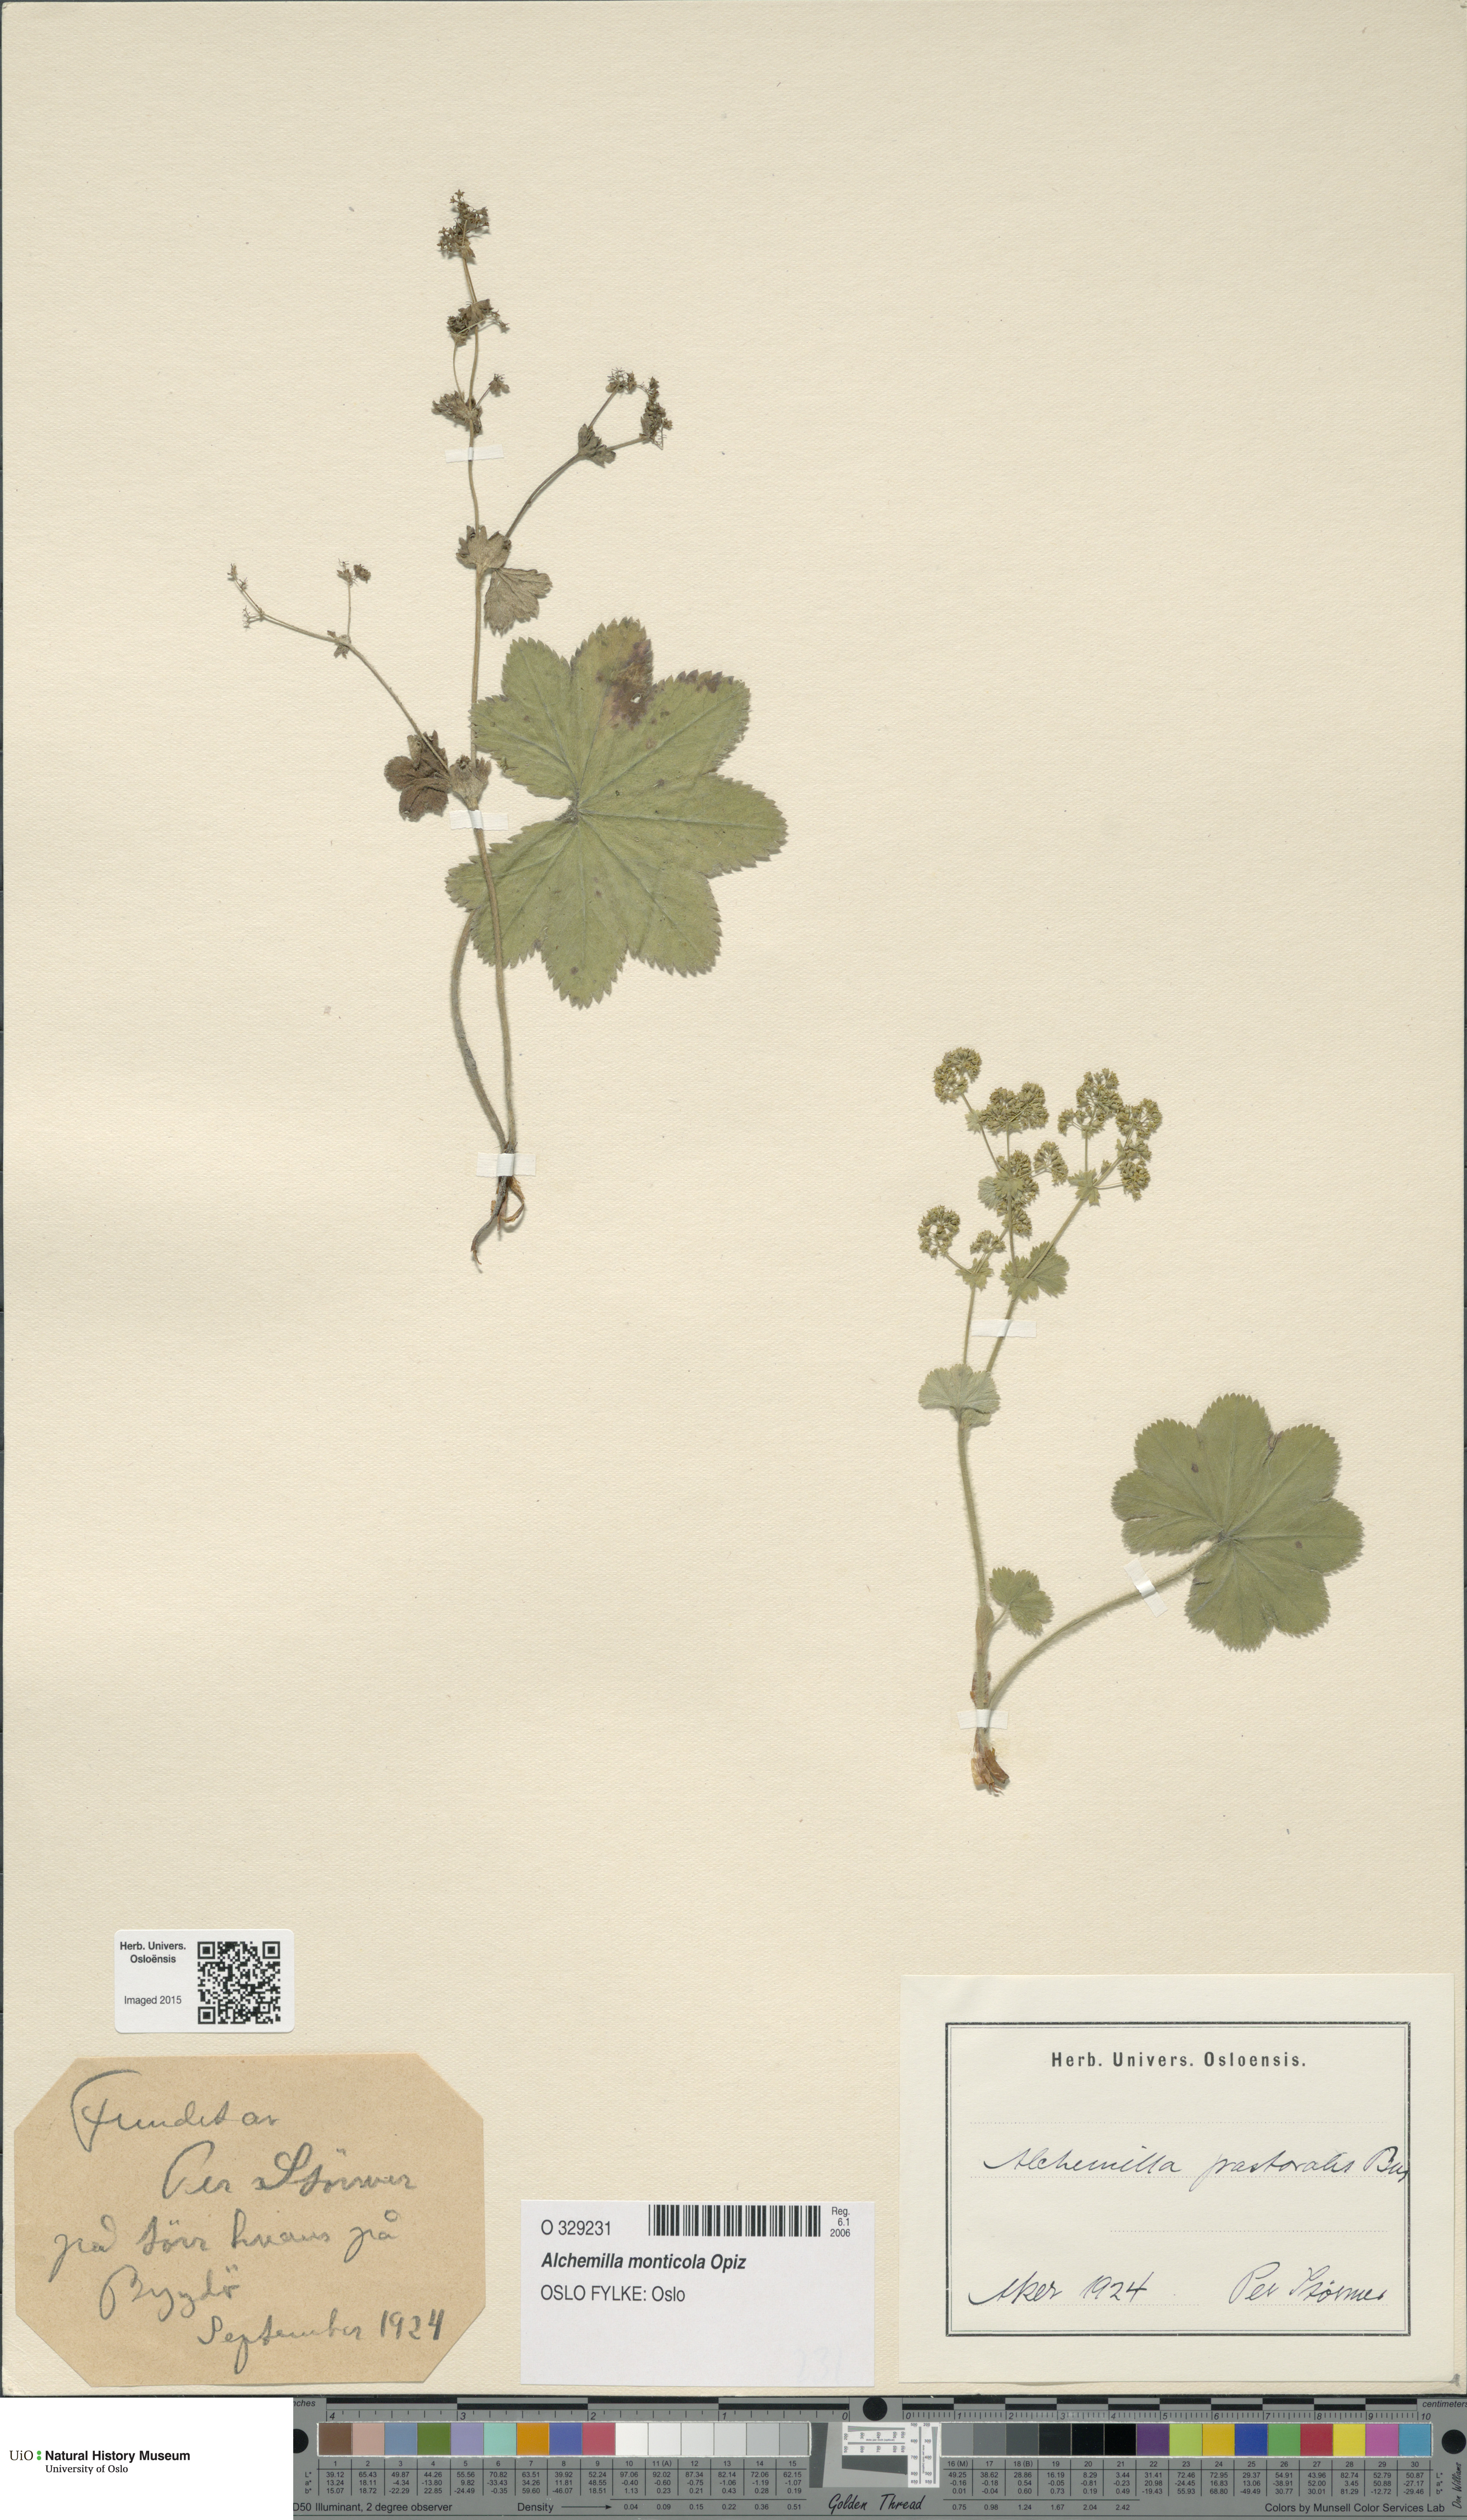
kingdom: Plantae
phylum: Tracheophyta
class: Magnoliopsida
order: Rosales
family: Rosaceae
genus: Alchemilla
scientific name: Alchemilla monticola
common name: Hairy lady's mantle
